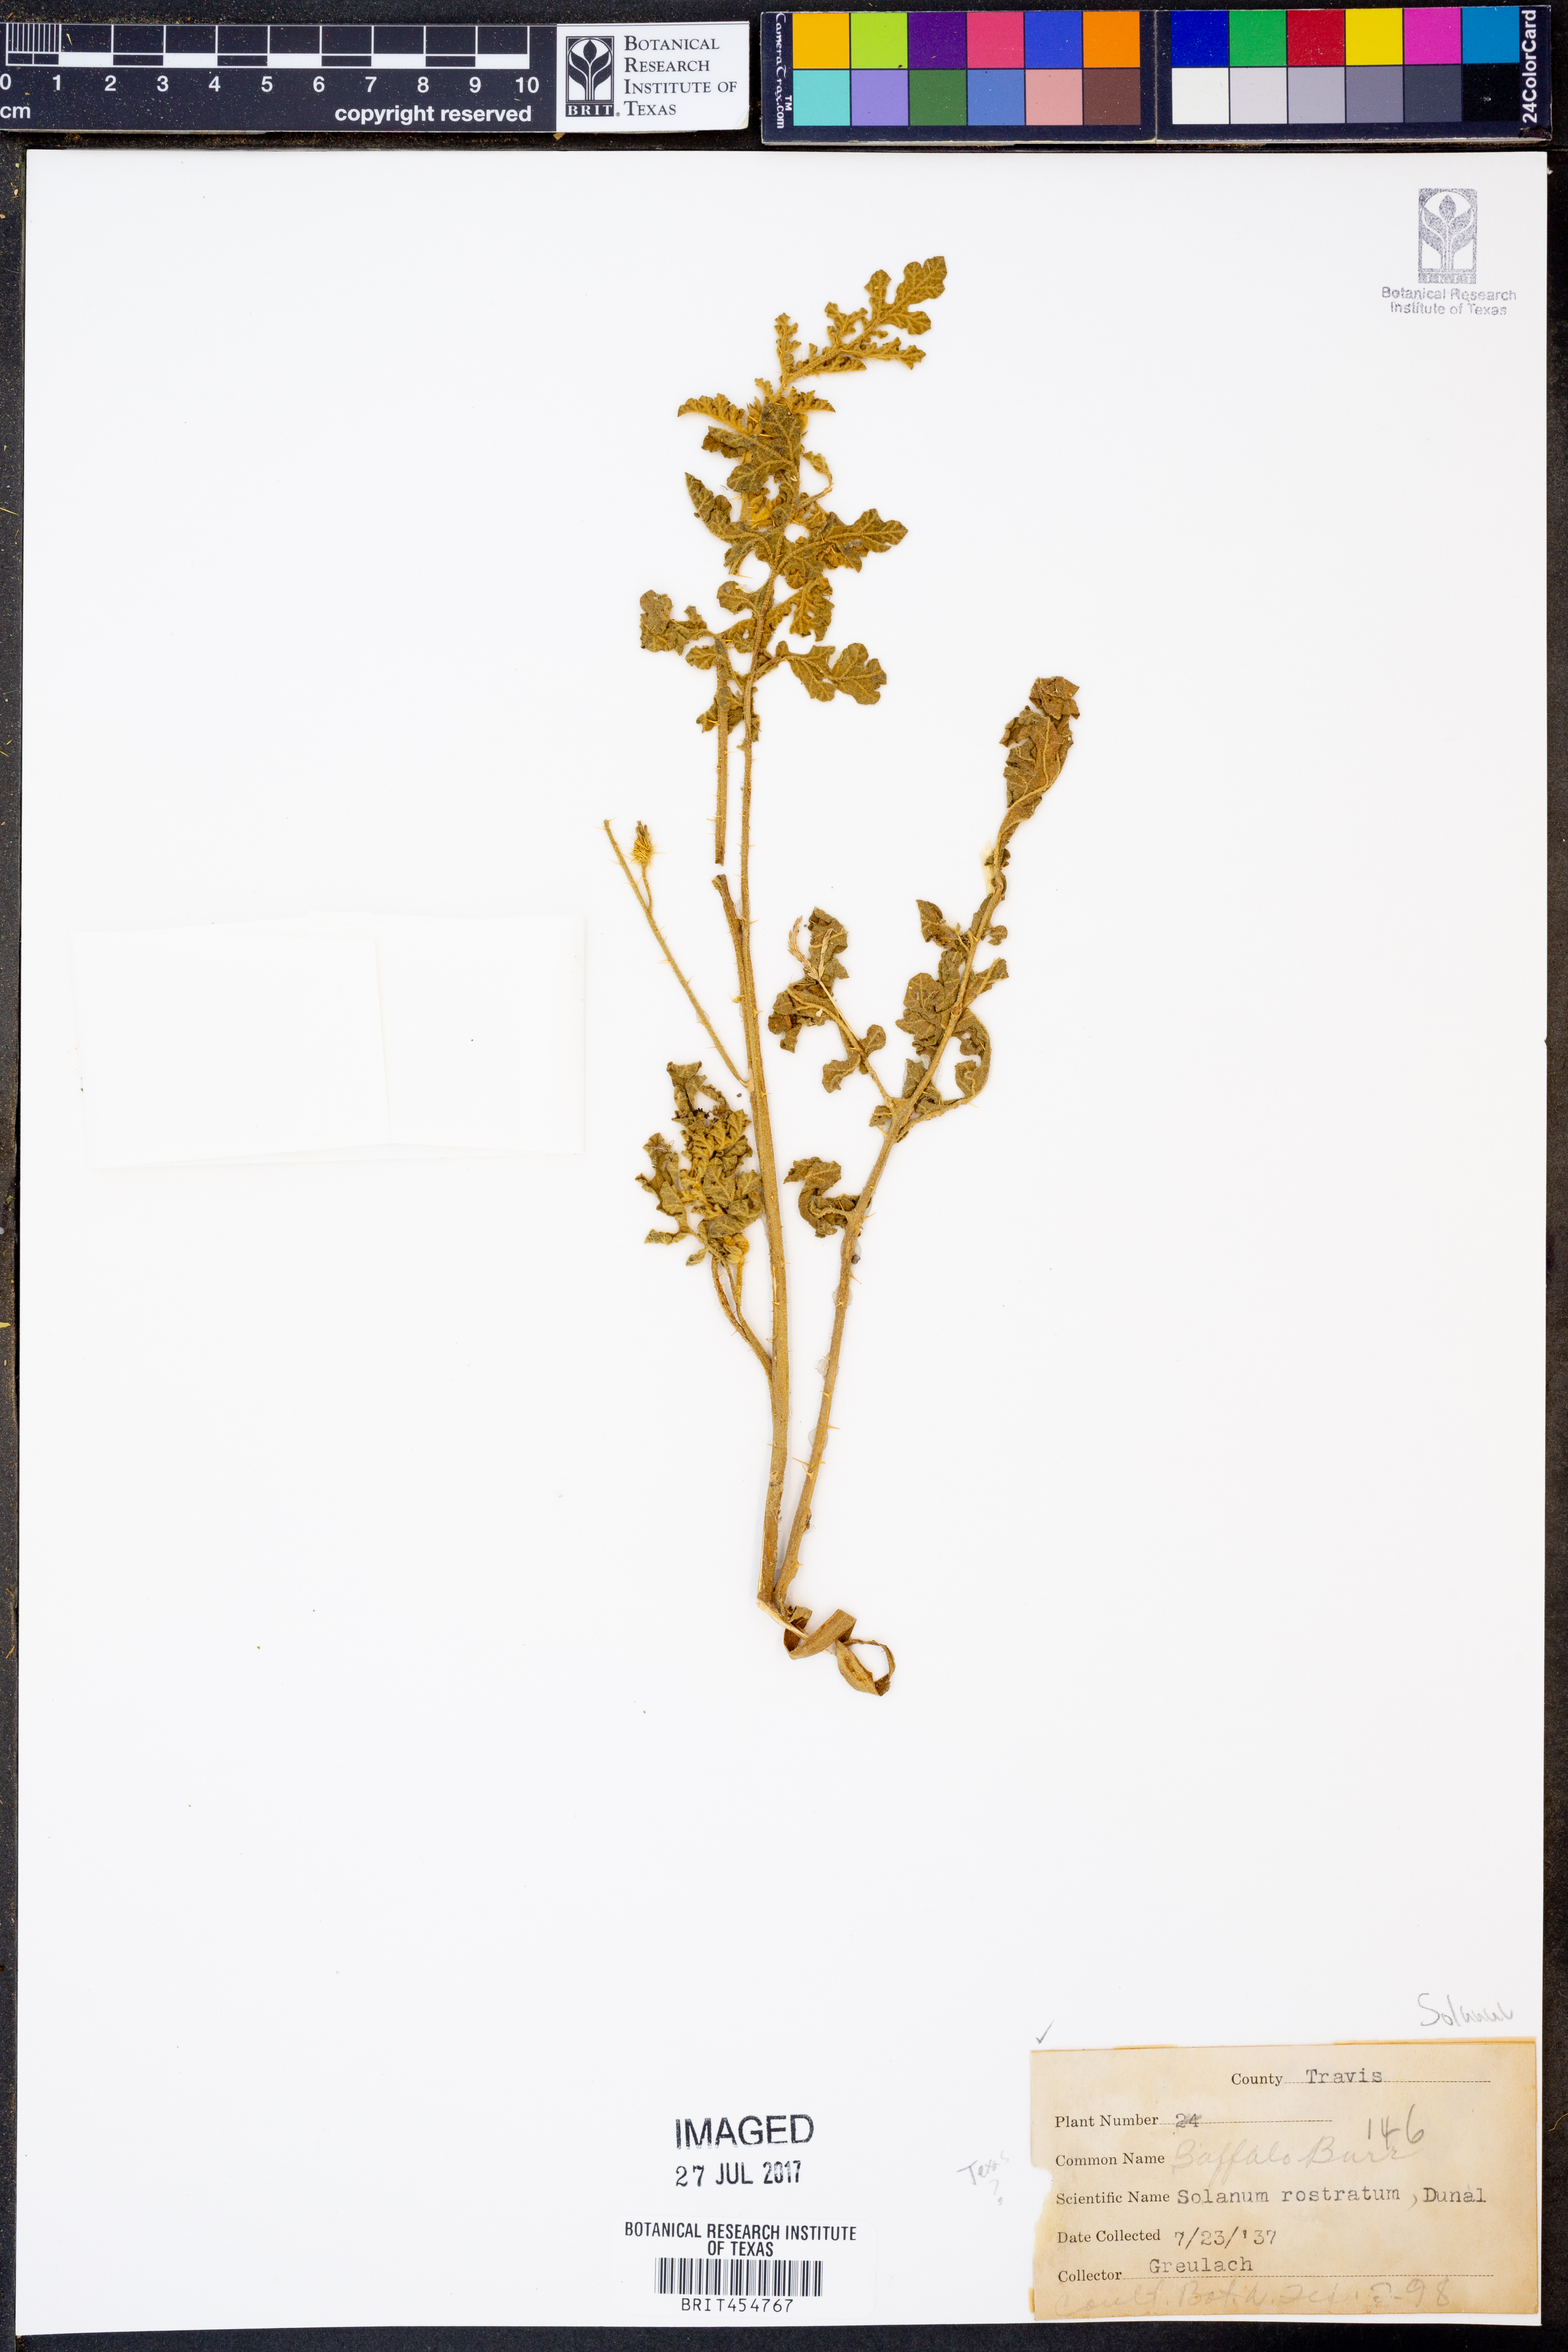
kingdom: Plantae
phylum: Tracheophyta
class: Magnoliopsida
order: Solanales
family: Solanaceae
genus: Solanum
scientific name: Solanum angustifolium
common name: Buffalobur nightshade
